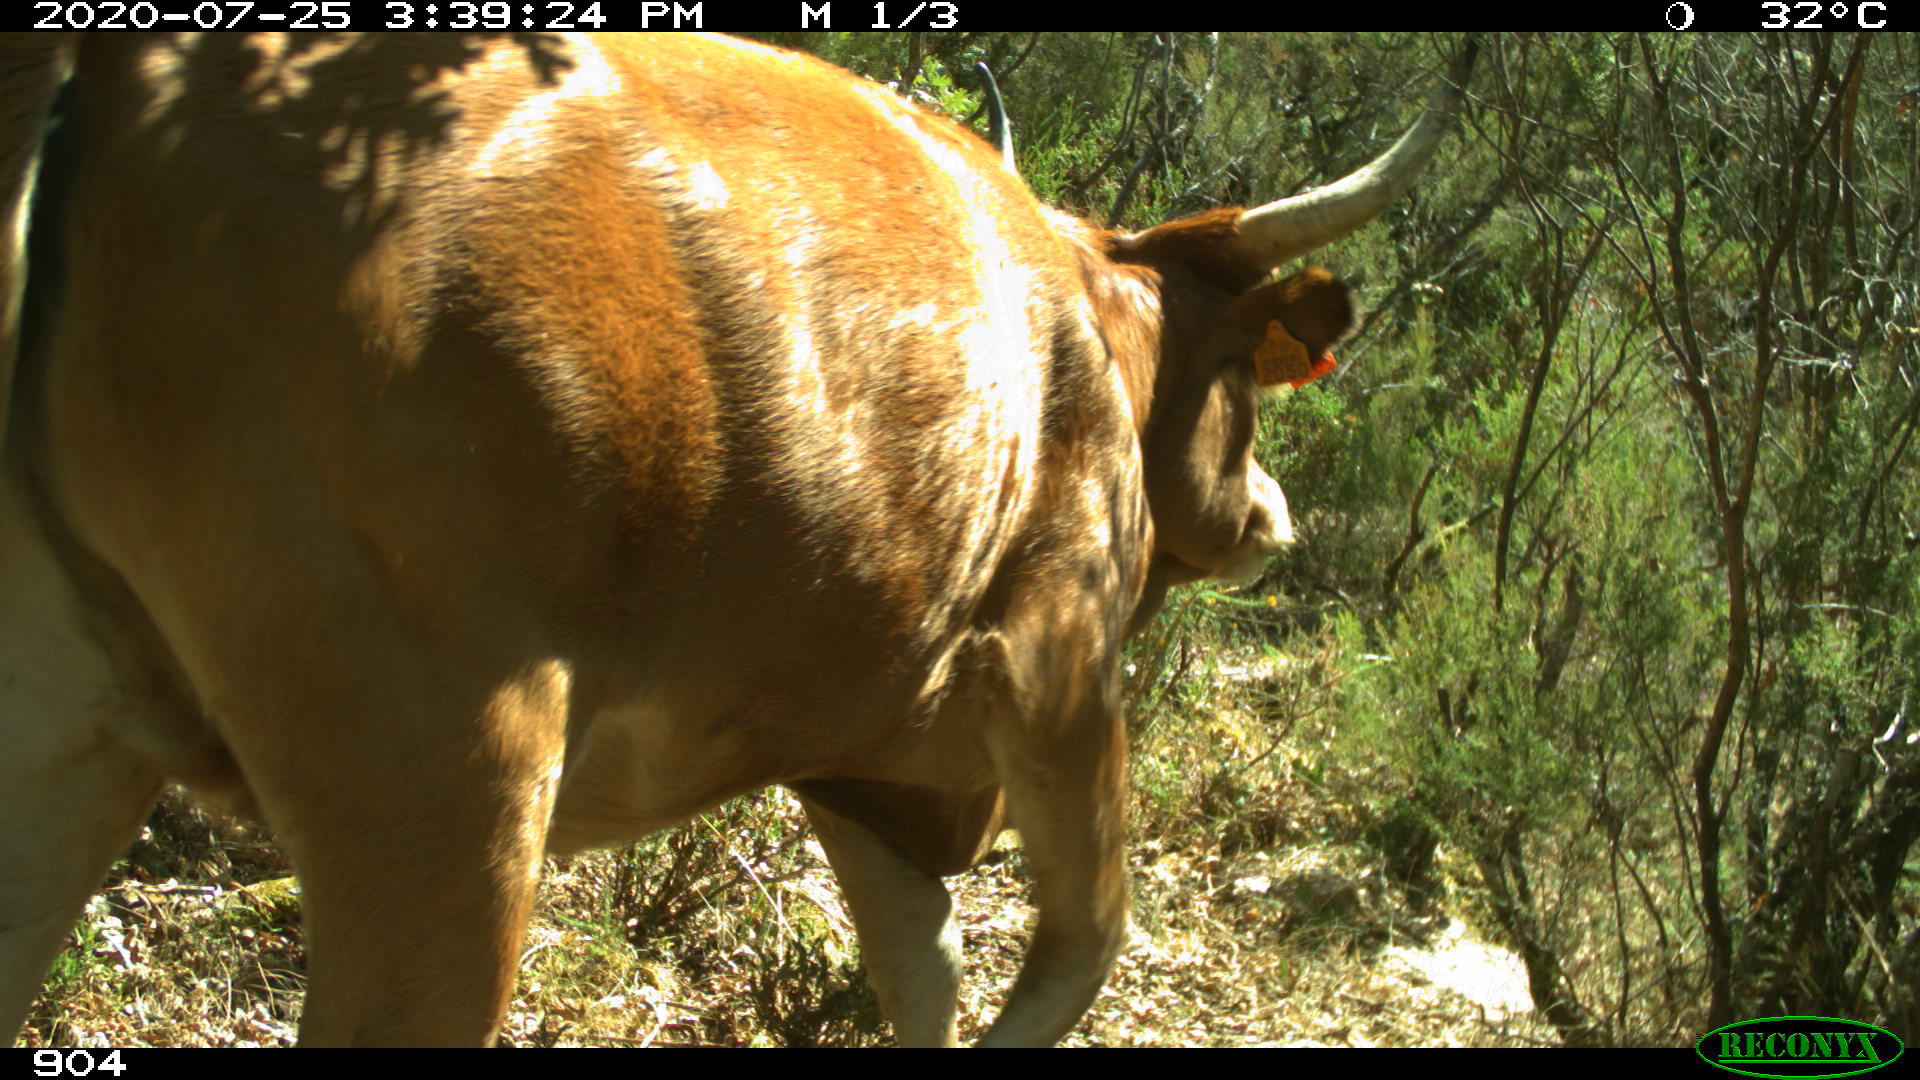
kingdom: Animalia
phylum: Chordata
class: Mammalia
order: Artiodactyla
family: Bovidae
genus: Bos
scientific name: Bos taurus
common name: Domesticated cattle
